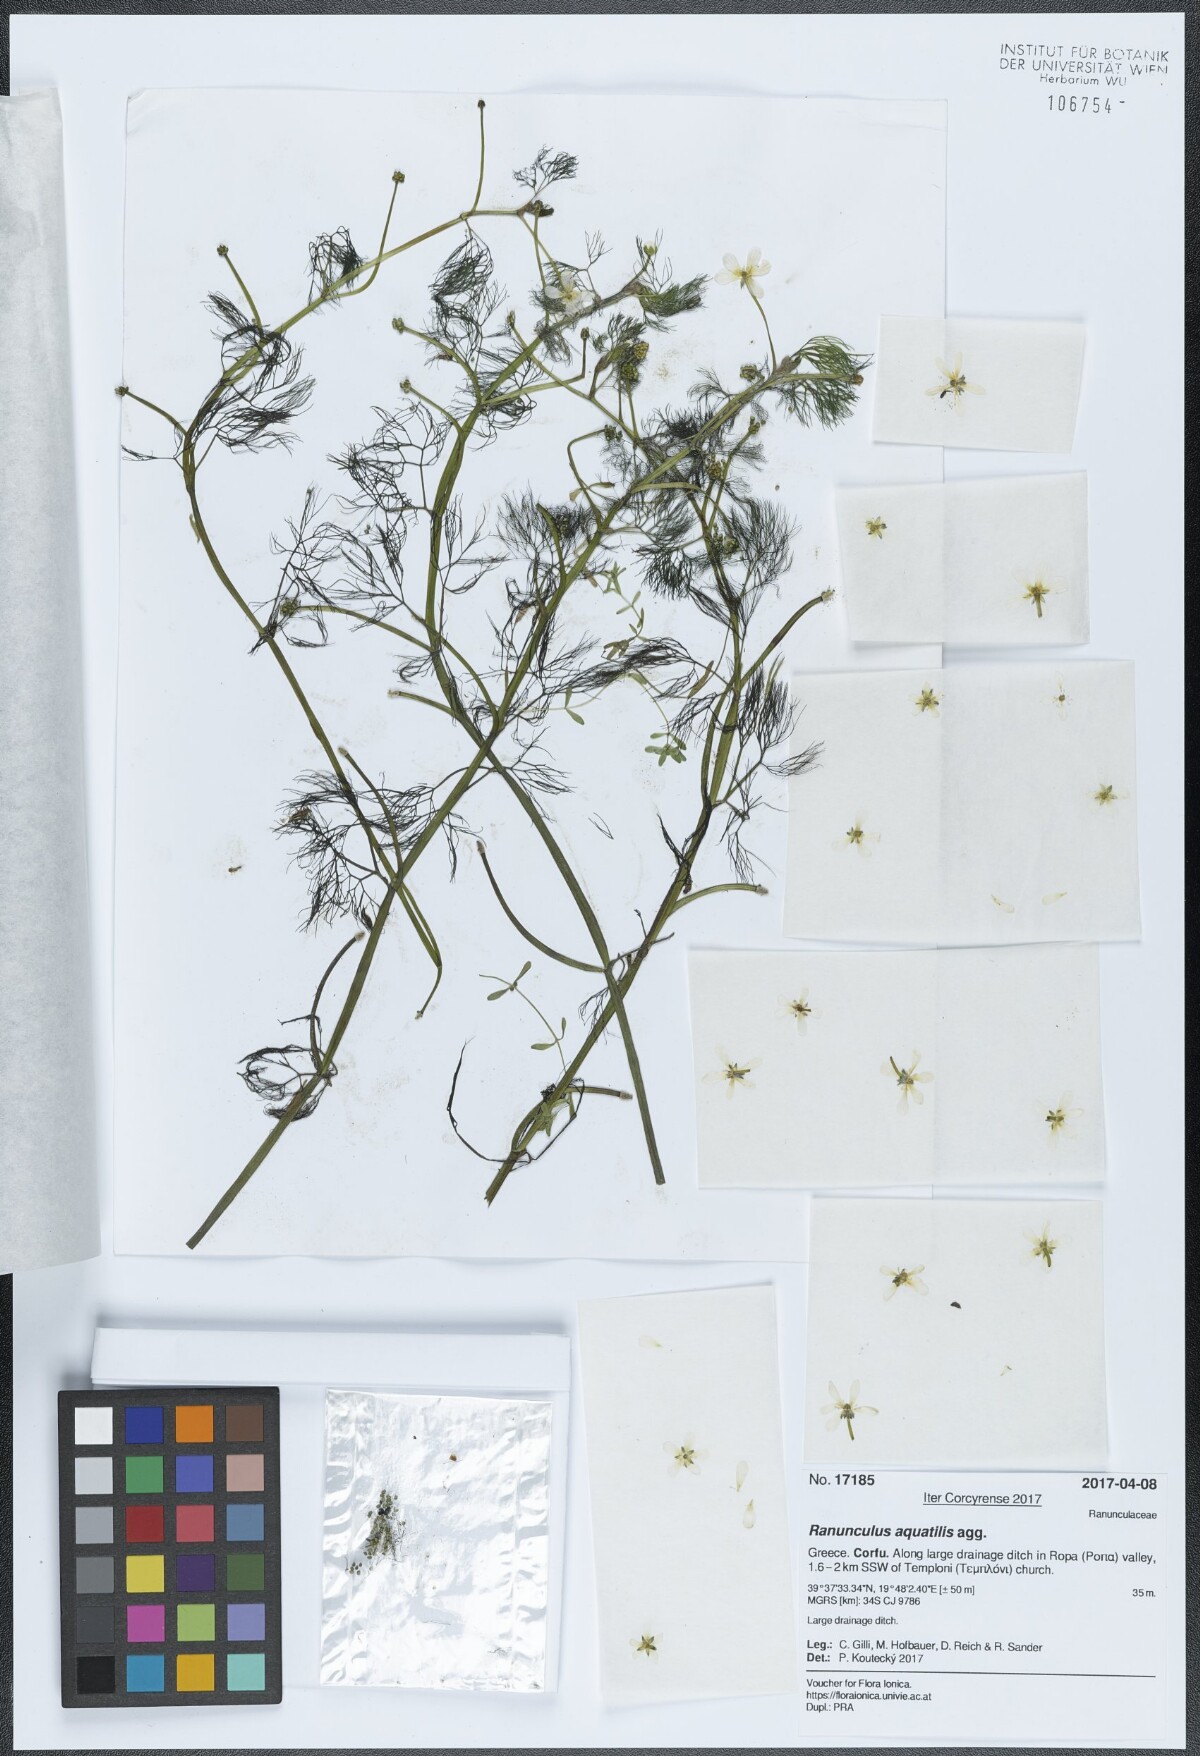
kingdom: Plantae
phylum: Tracheophyta
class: Magnoliopsida
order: Ranunculales
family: Ranunculaceae
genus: Ranunculus
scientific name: Ranunculus aquatilis
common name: Common water-crowfoot
